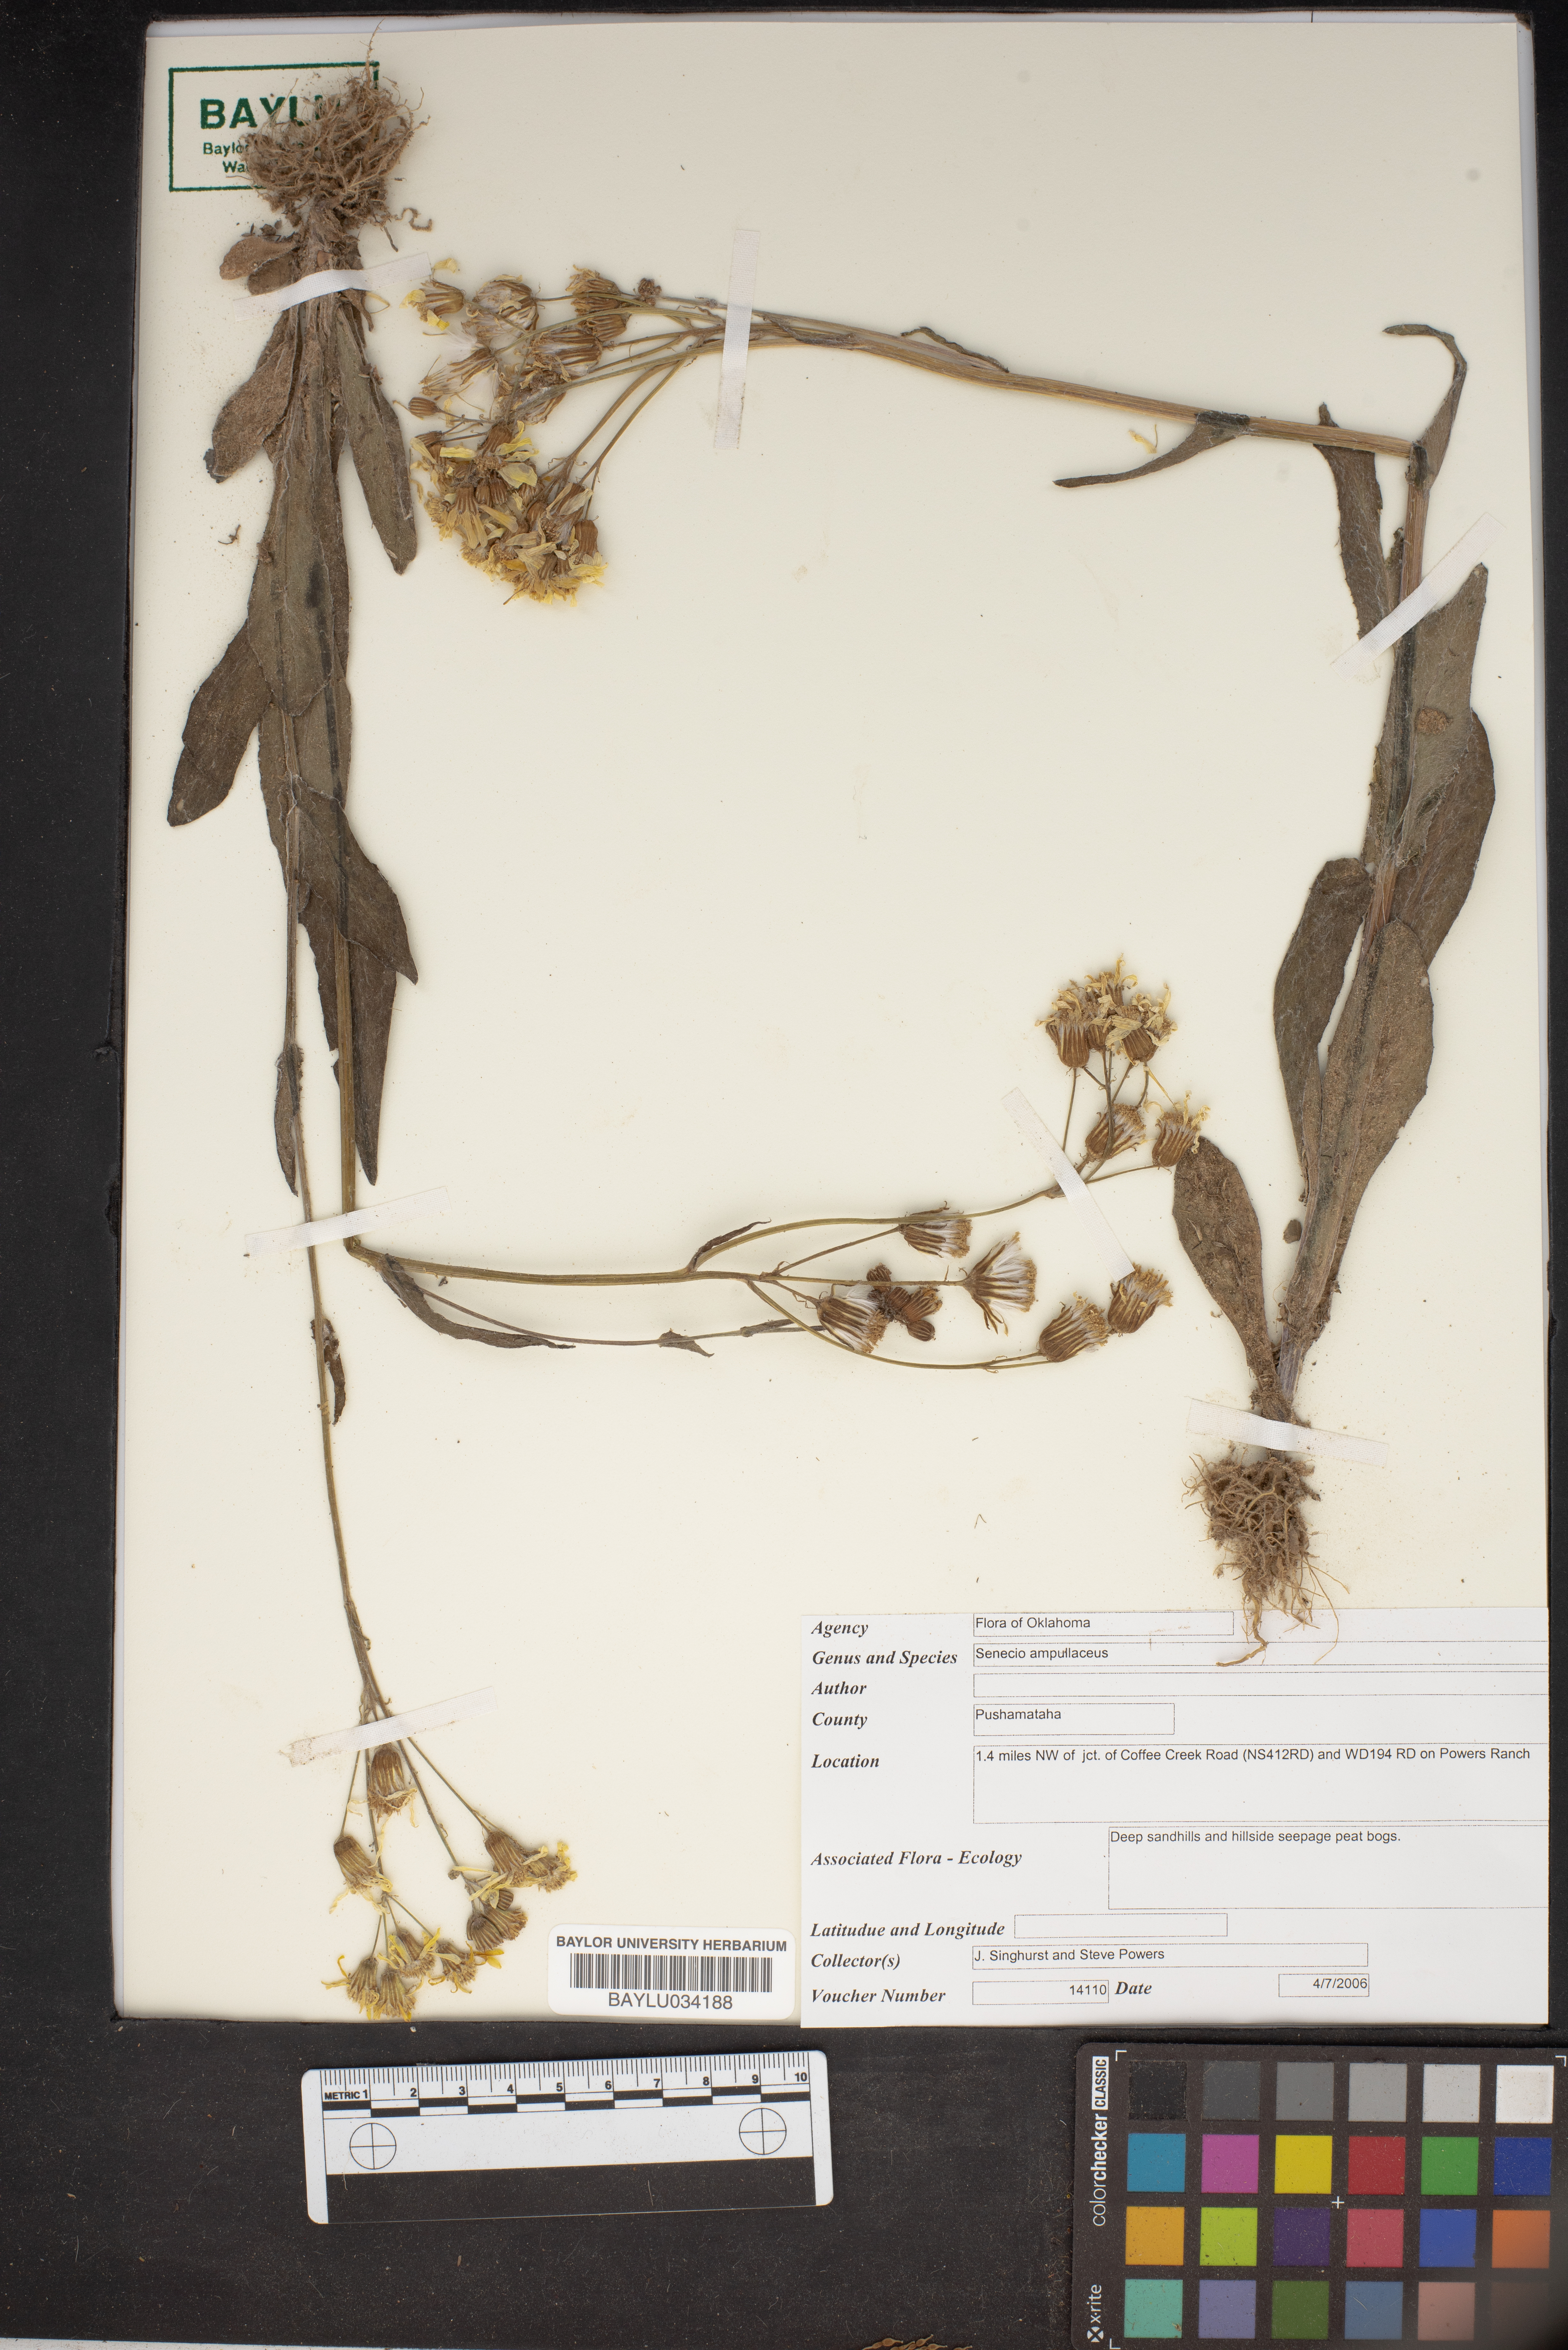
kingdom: Plantae
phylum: Tracheophyta
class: Magnoliopsida
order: Asterales
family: Asteraceae
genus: Senecio
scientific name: Senecio ampullaceus
